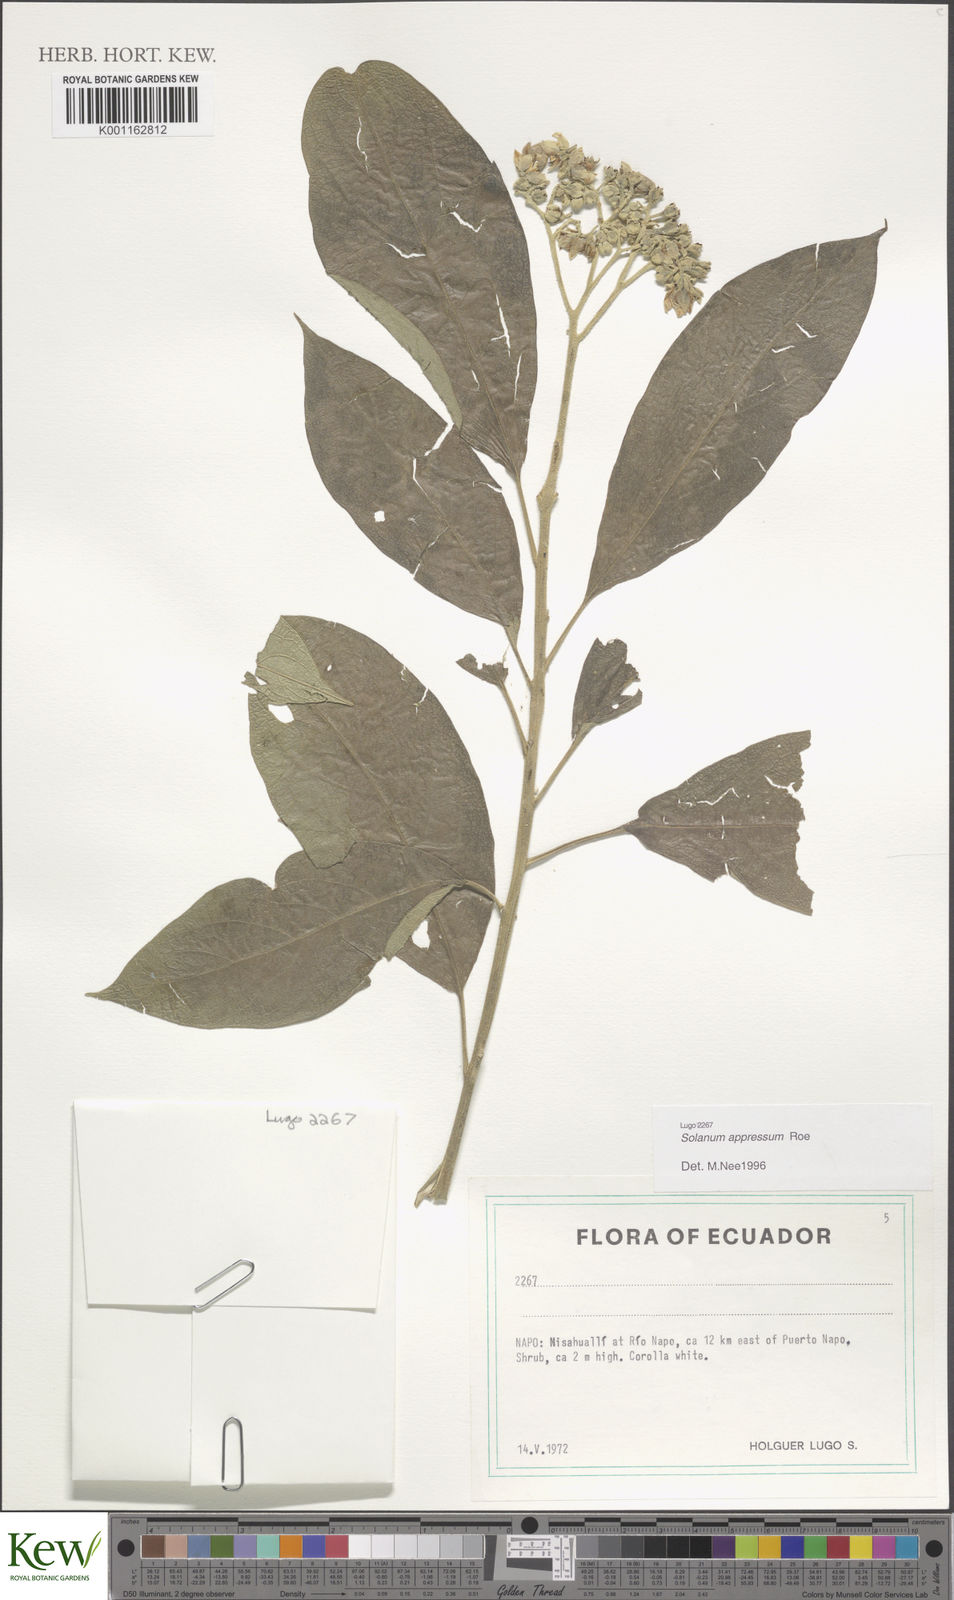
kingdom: Plantae
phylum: Tracheophyta
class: Magnoliopsida
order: Solanales
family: Solanaceae
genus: Solanum
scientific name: Solanum appressum
